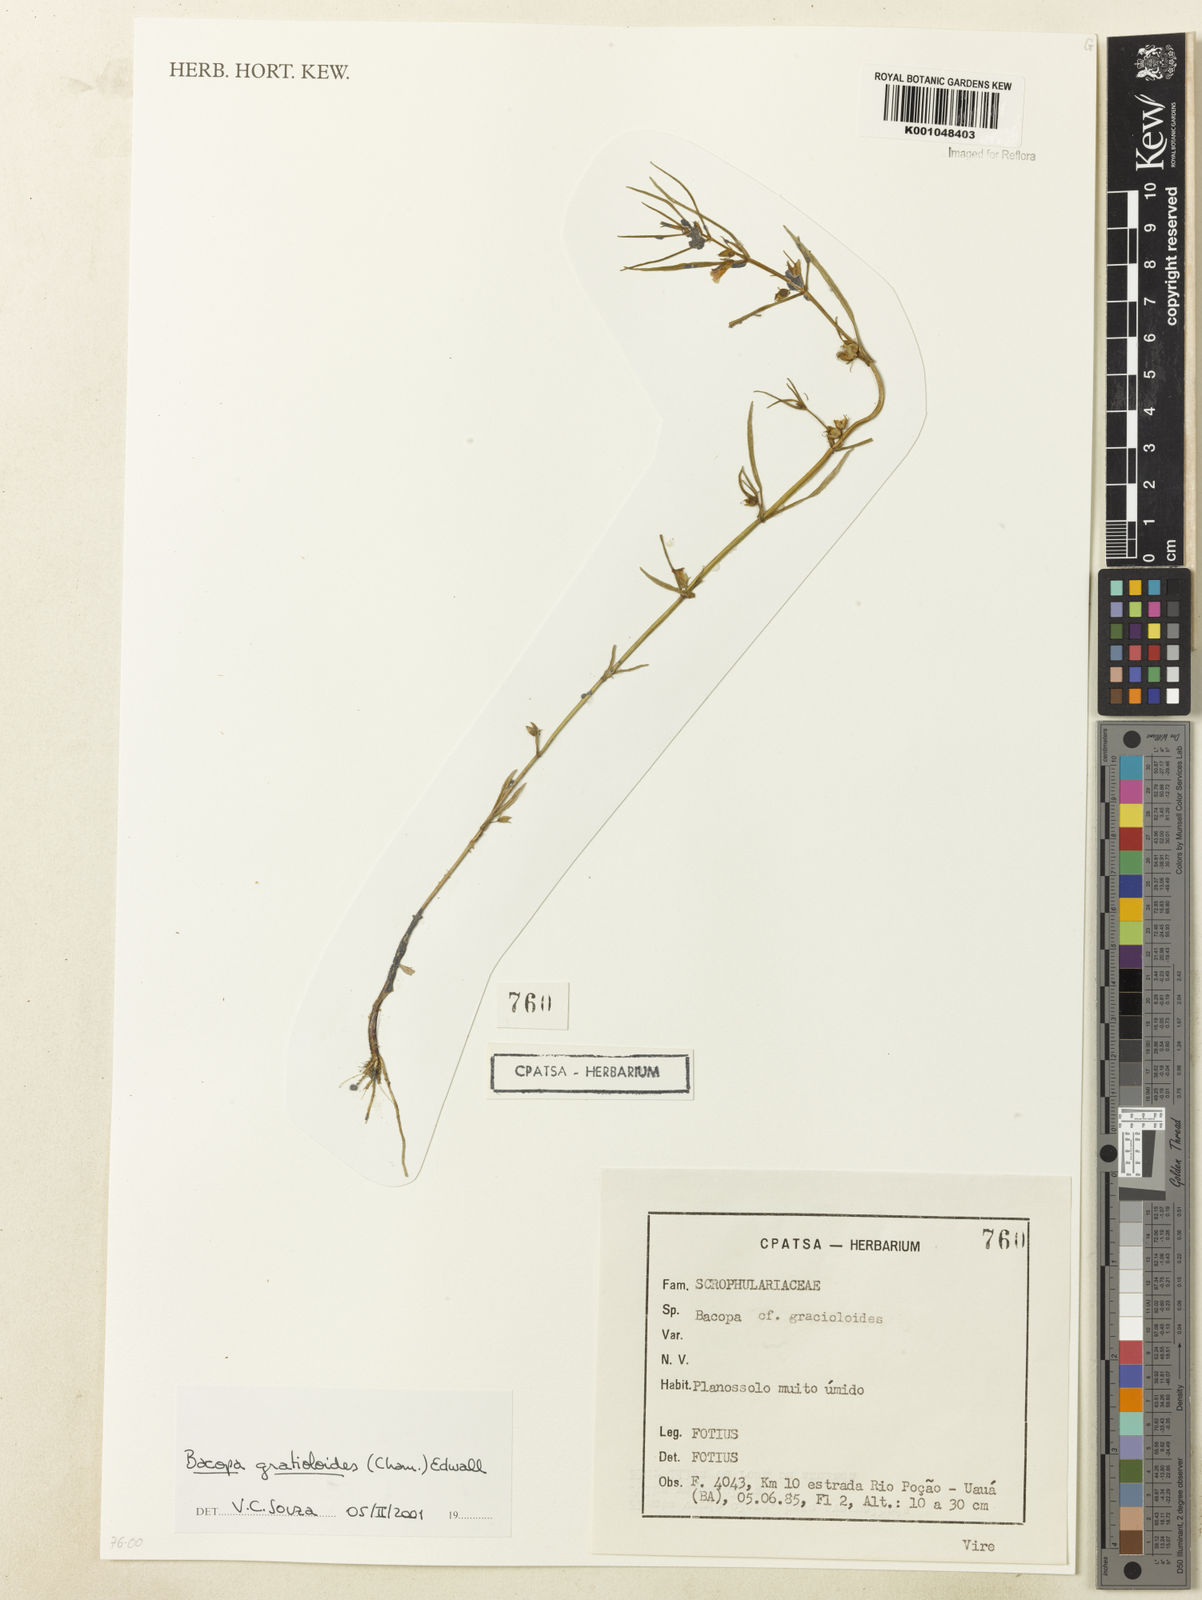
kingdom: Plantae
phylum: Tracheophyta
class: Magnoliopsida
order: Lamiales
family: Plantaginaceae
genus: Bacopa
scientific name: Bacopa
